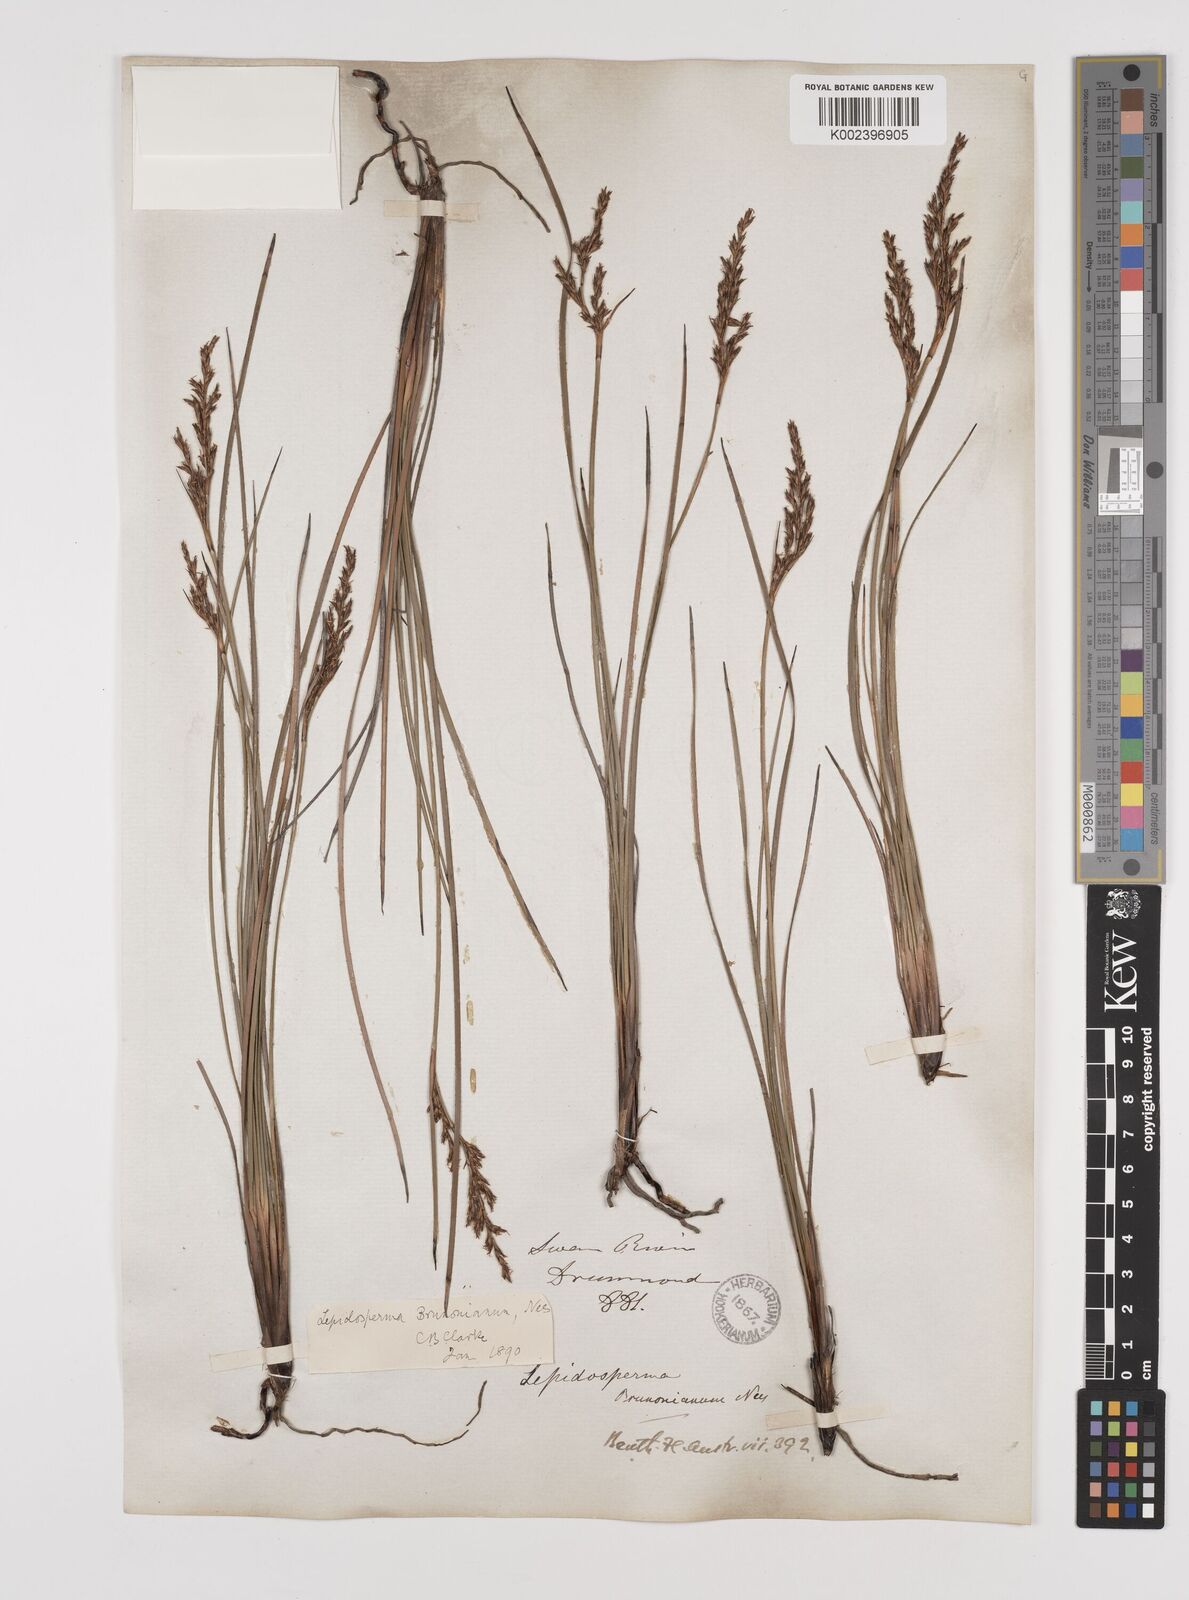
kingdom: Plantae
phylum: Tracheophyta
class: Liliopsida
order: Poales
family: Cyperaceae
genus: Lepidosperma
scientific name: Lepidosperma sieberi
